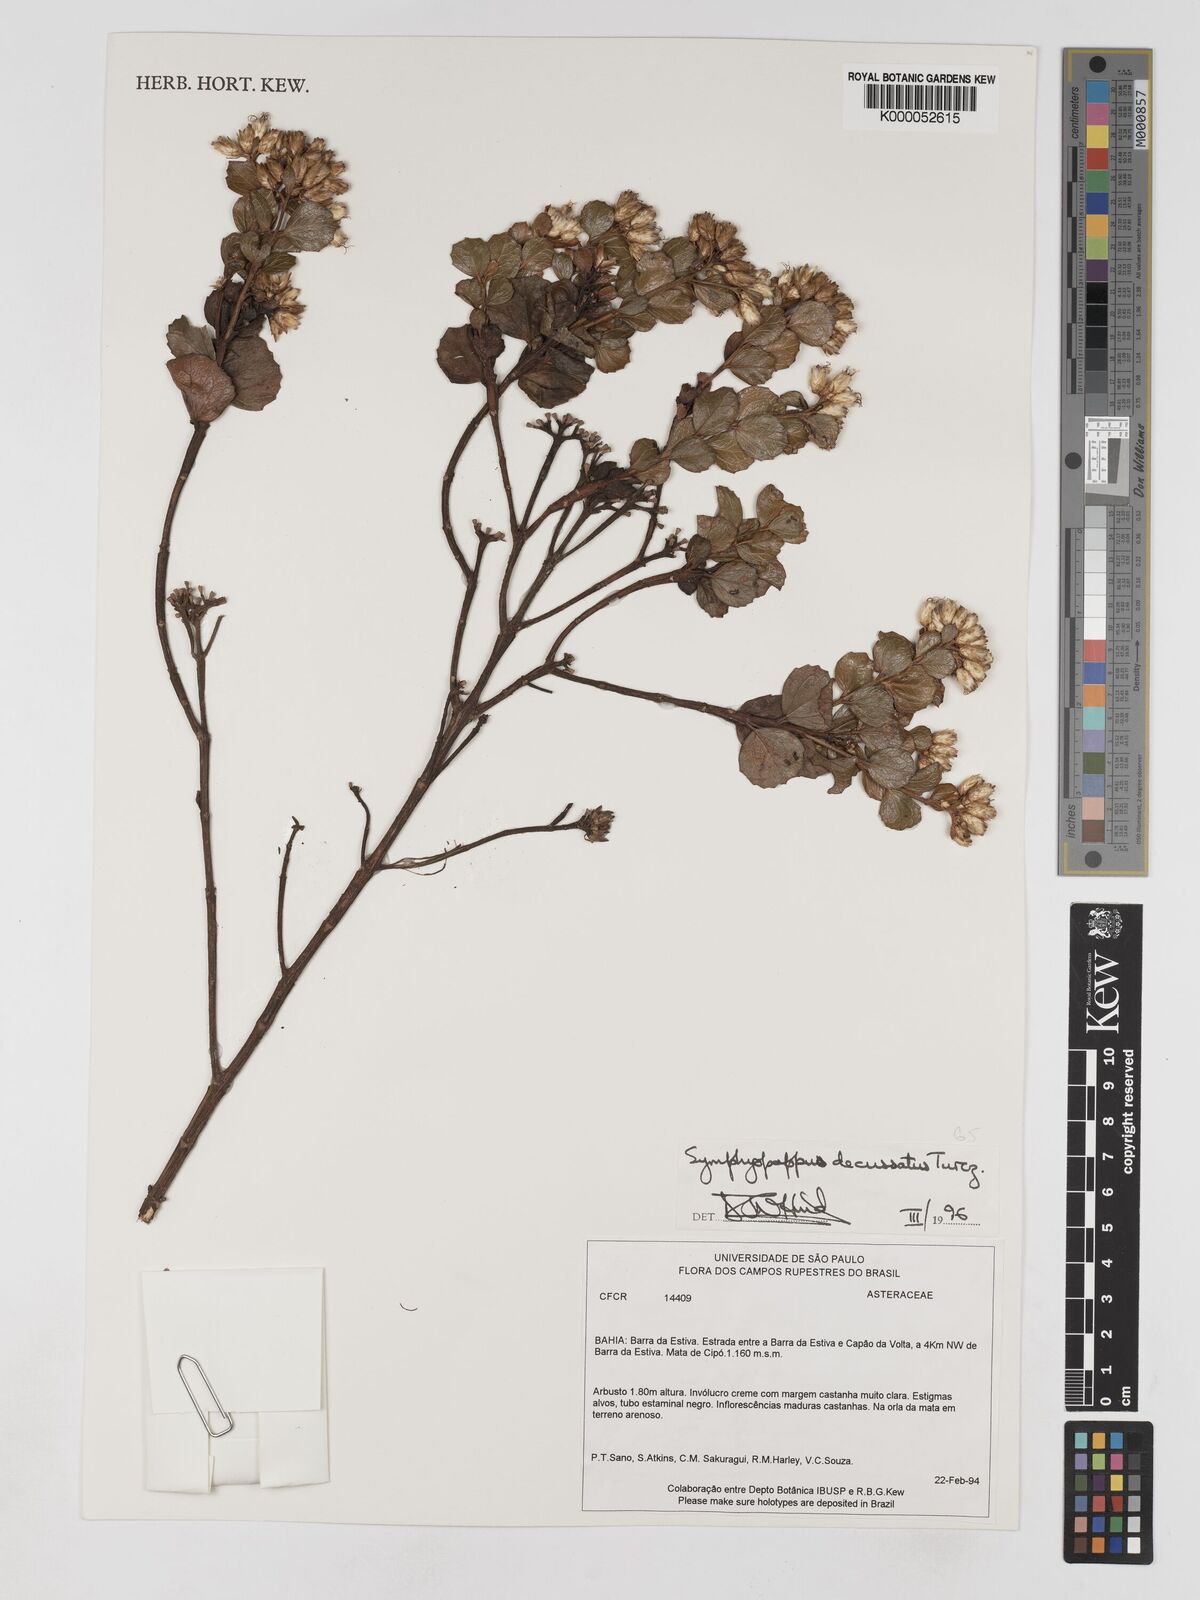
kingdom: Plantae
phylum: Tracheophyta
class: Magnoliopsida
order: Asterales
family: Asteraceae
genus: Symphyopappus
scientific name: Symphyopappus decussatus
